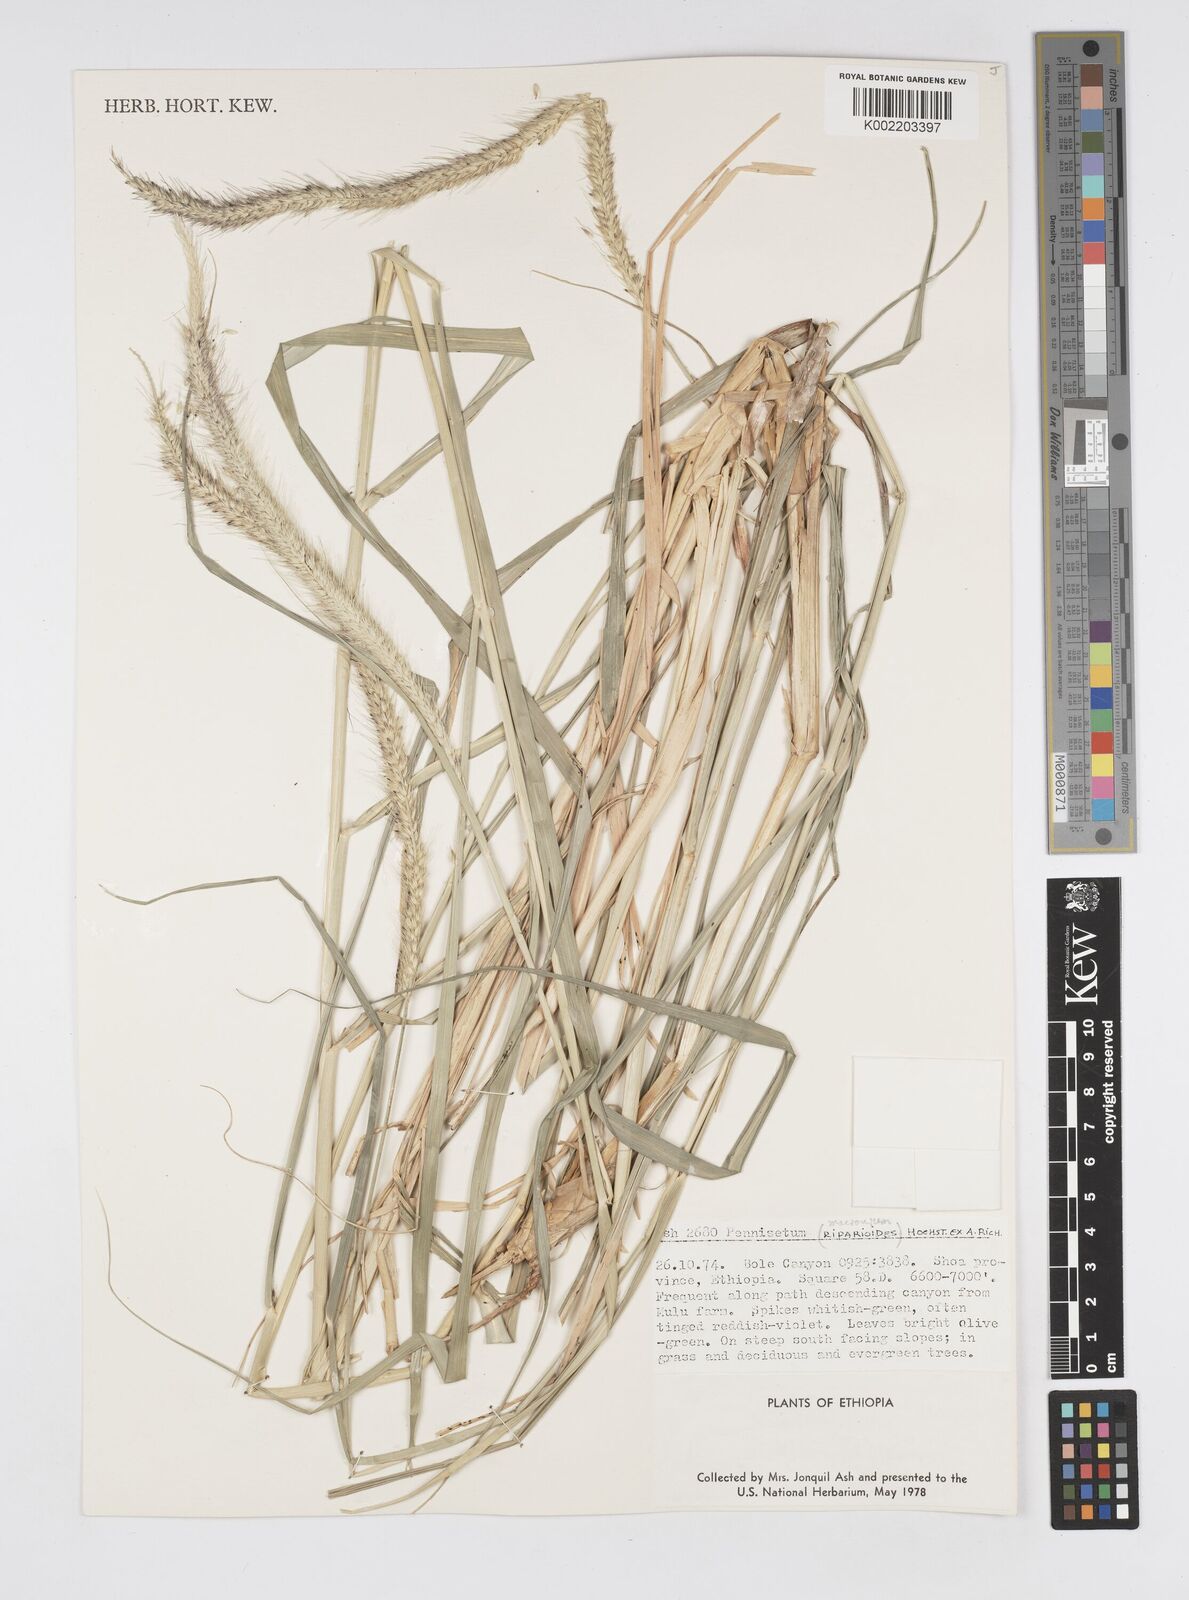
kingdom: Plantae
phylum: Tracheophyta
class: Liliopsida
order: Poales
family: Poaceae
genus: Cenchrus
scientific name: Cenchrus caudatus
